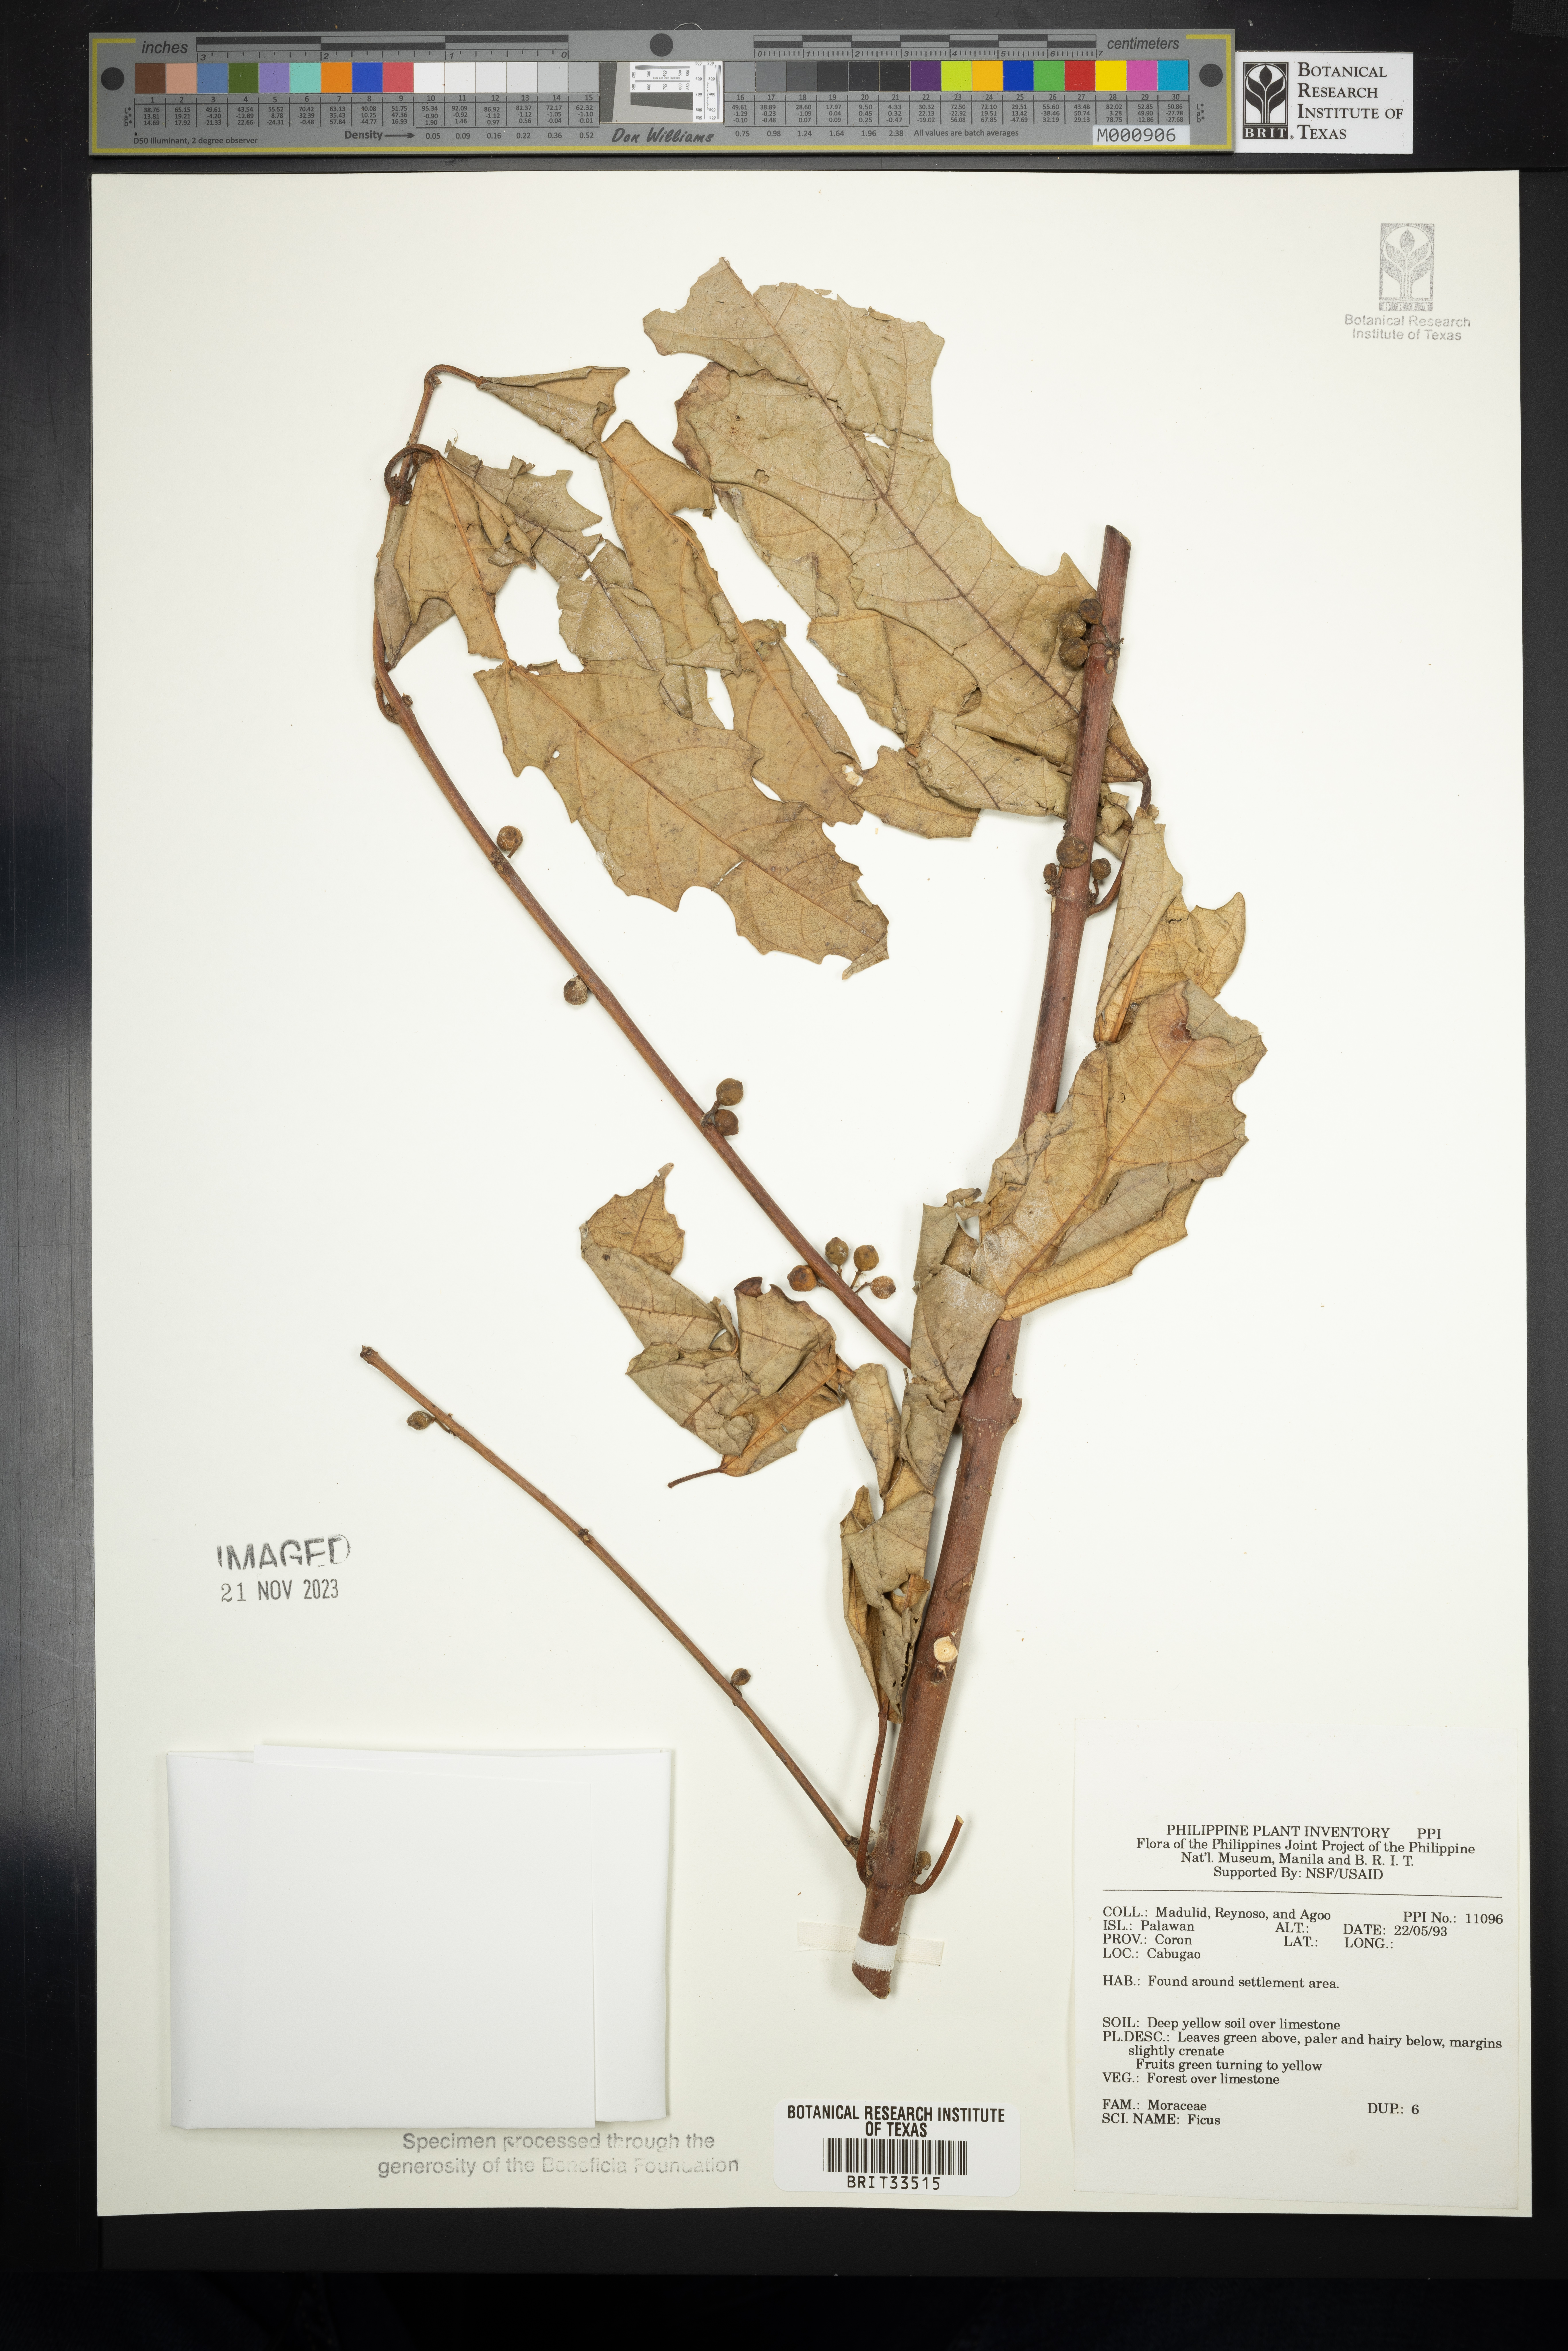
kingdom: Plantae
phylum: Tracheophyta
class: Magnoliopsida
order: Rosales
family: Moraceae
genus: Ficus
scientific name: Ficus
